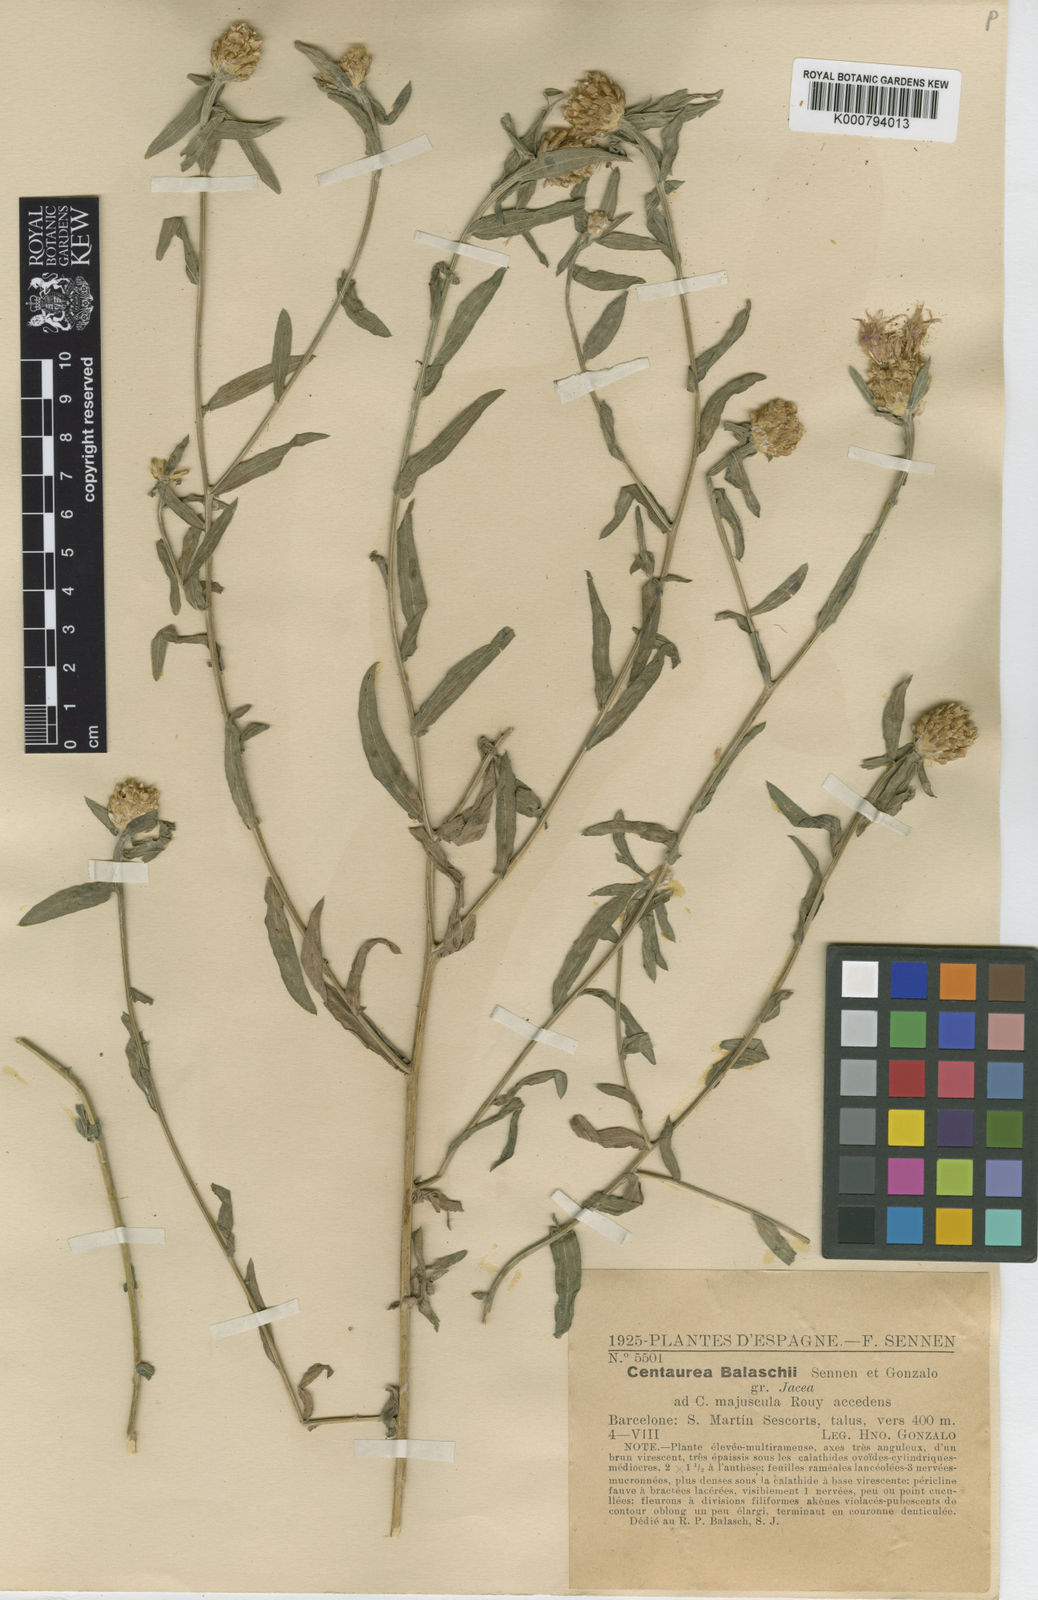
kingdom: Plantae
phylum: Tracheophyta
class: Magnoliopsida
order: Asterales
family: Asteraceae
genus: Centaurea
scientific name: Centaurea jacea
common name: Brown knapweed
